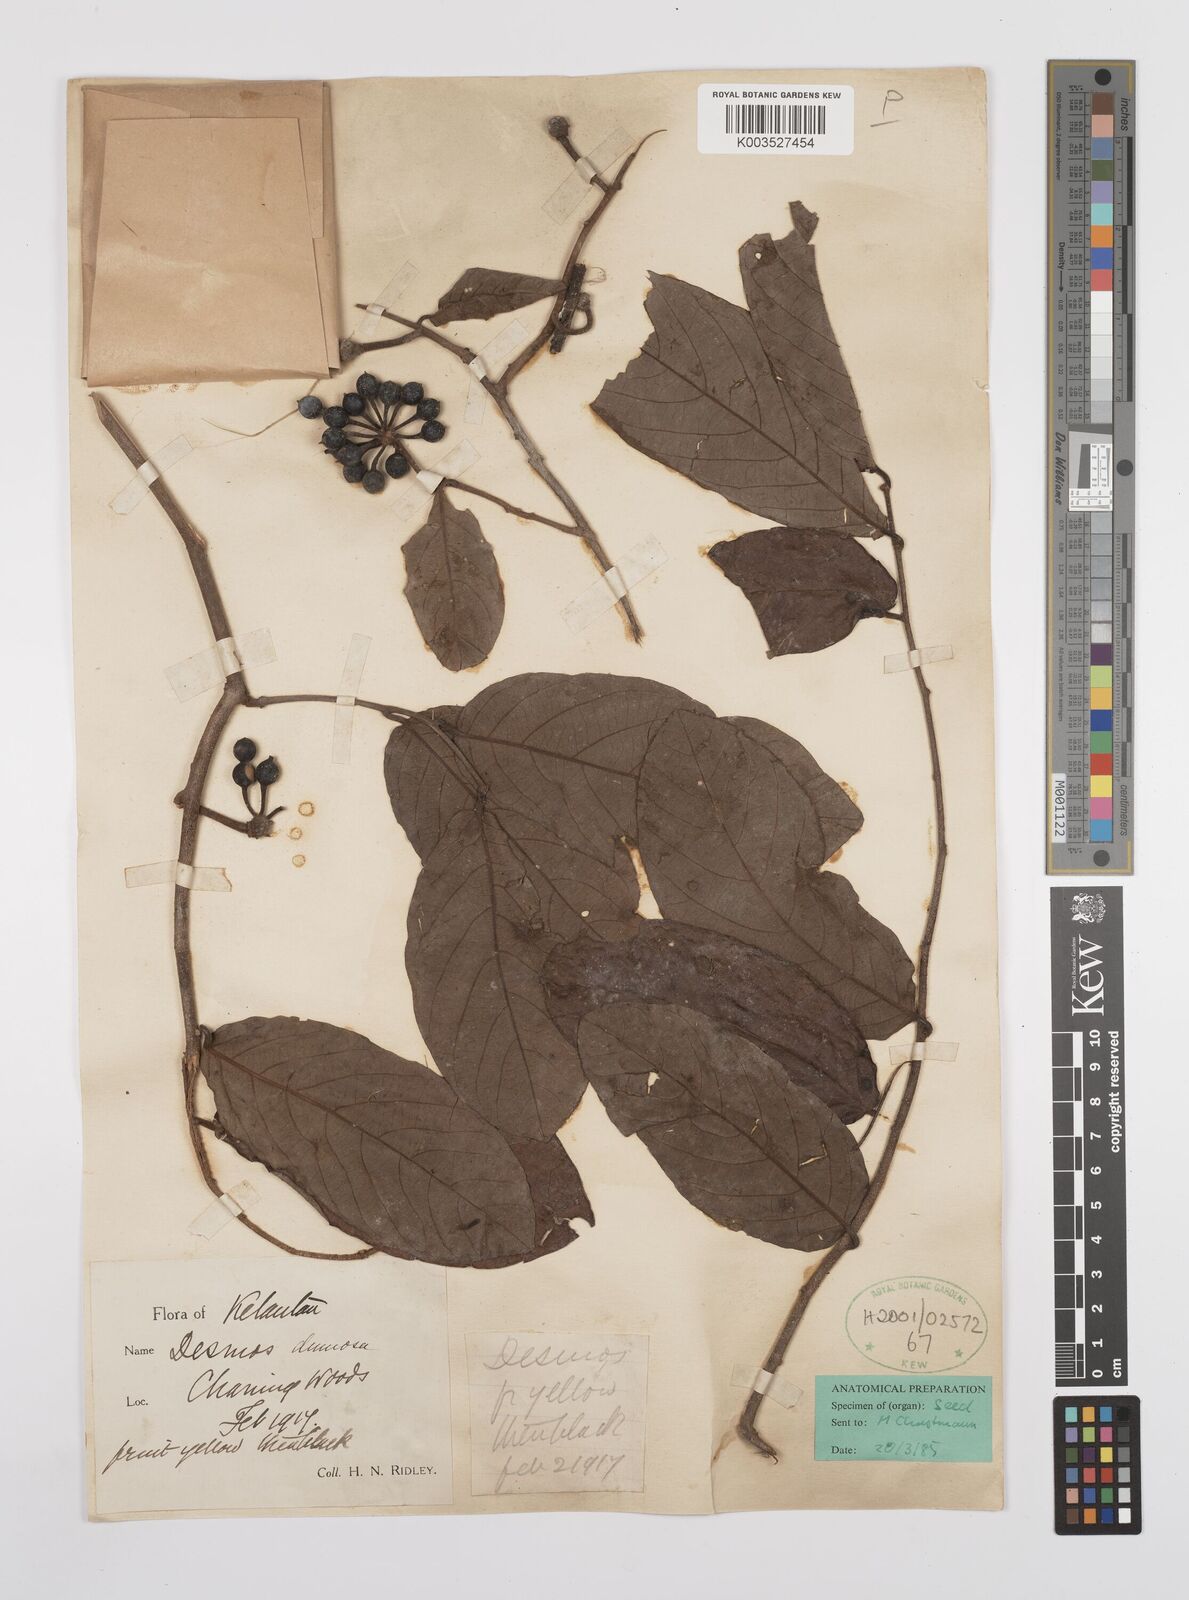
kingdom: Plantae
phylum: Tracheophyta
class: Magnoliopsida
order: Magnoliales
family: Annonaceae
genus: Desmos
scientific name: Desmos dumosus
